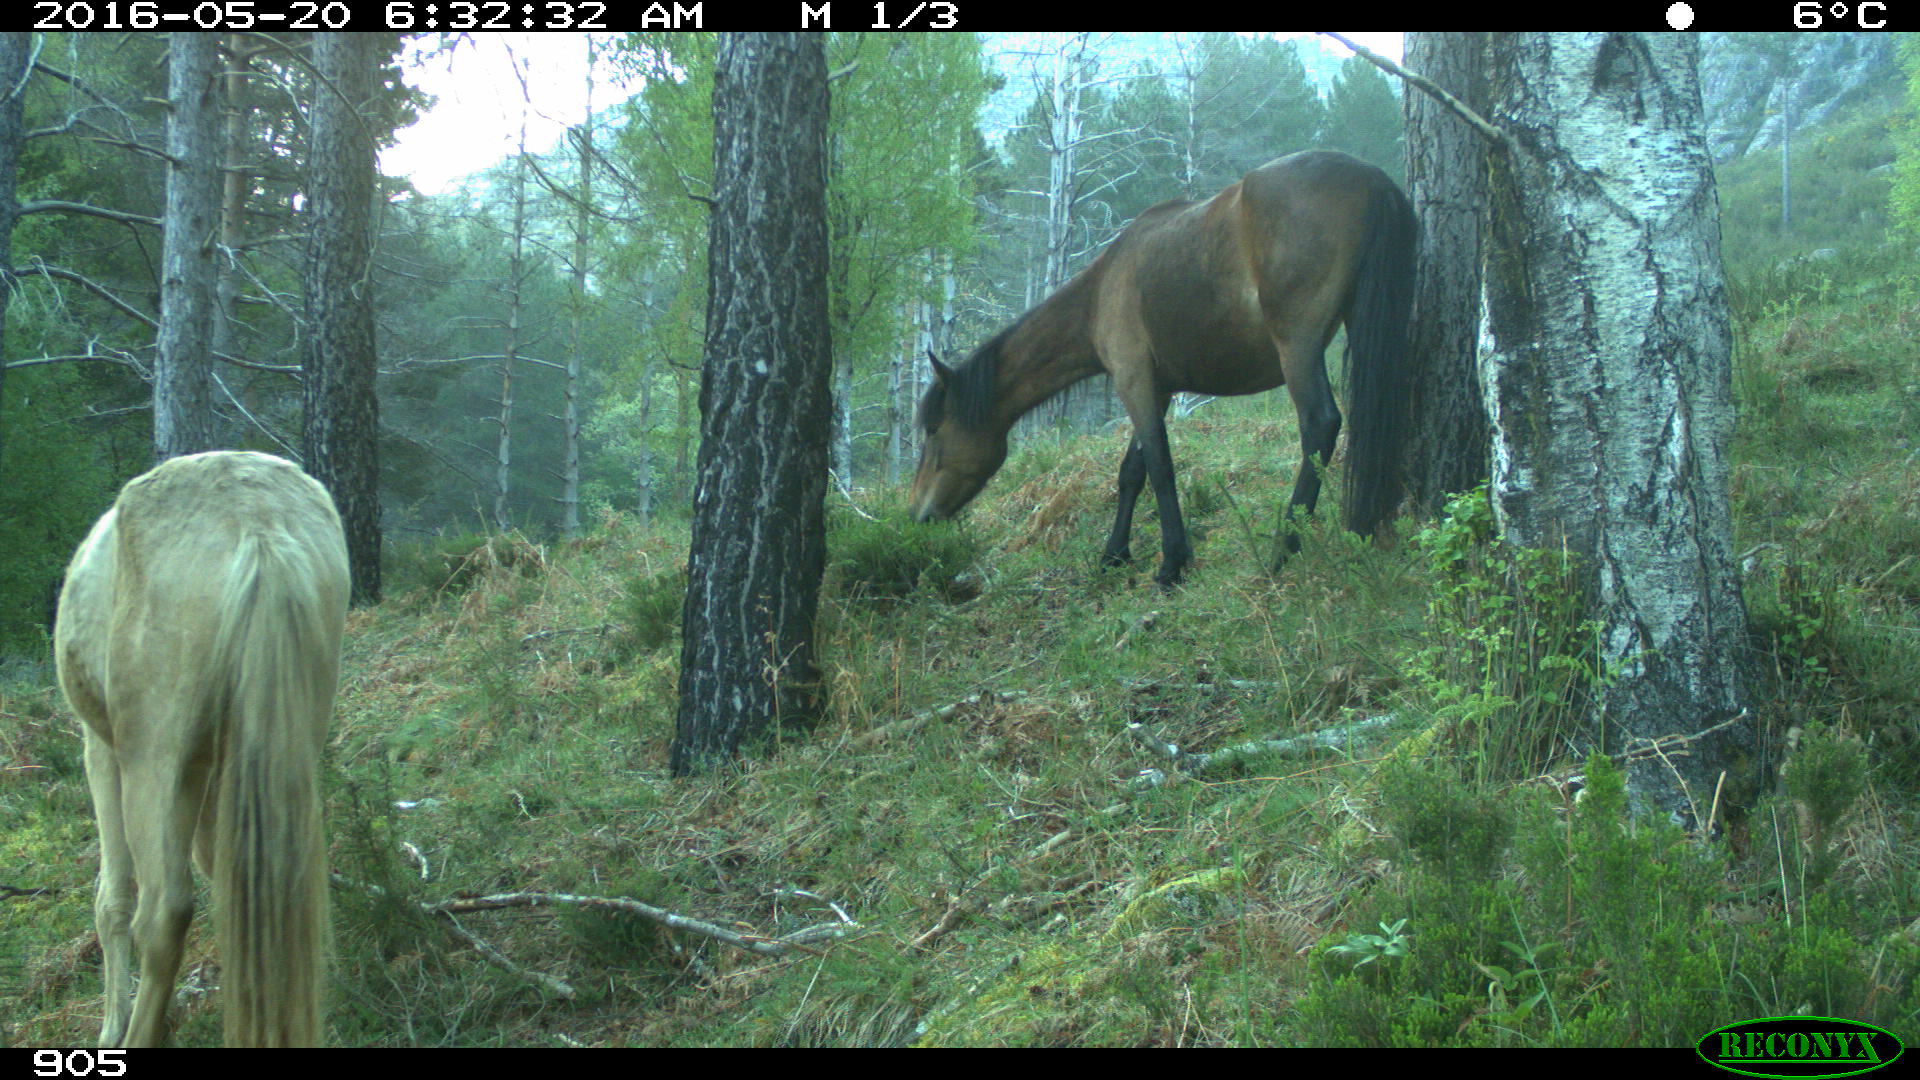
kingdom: Animalia
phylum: Chordata
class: Mammalia
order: Perissodactyla
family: Equidae
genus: Equus
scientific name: Equus caballus
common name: Horse
